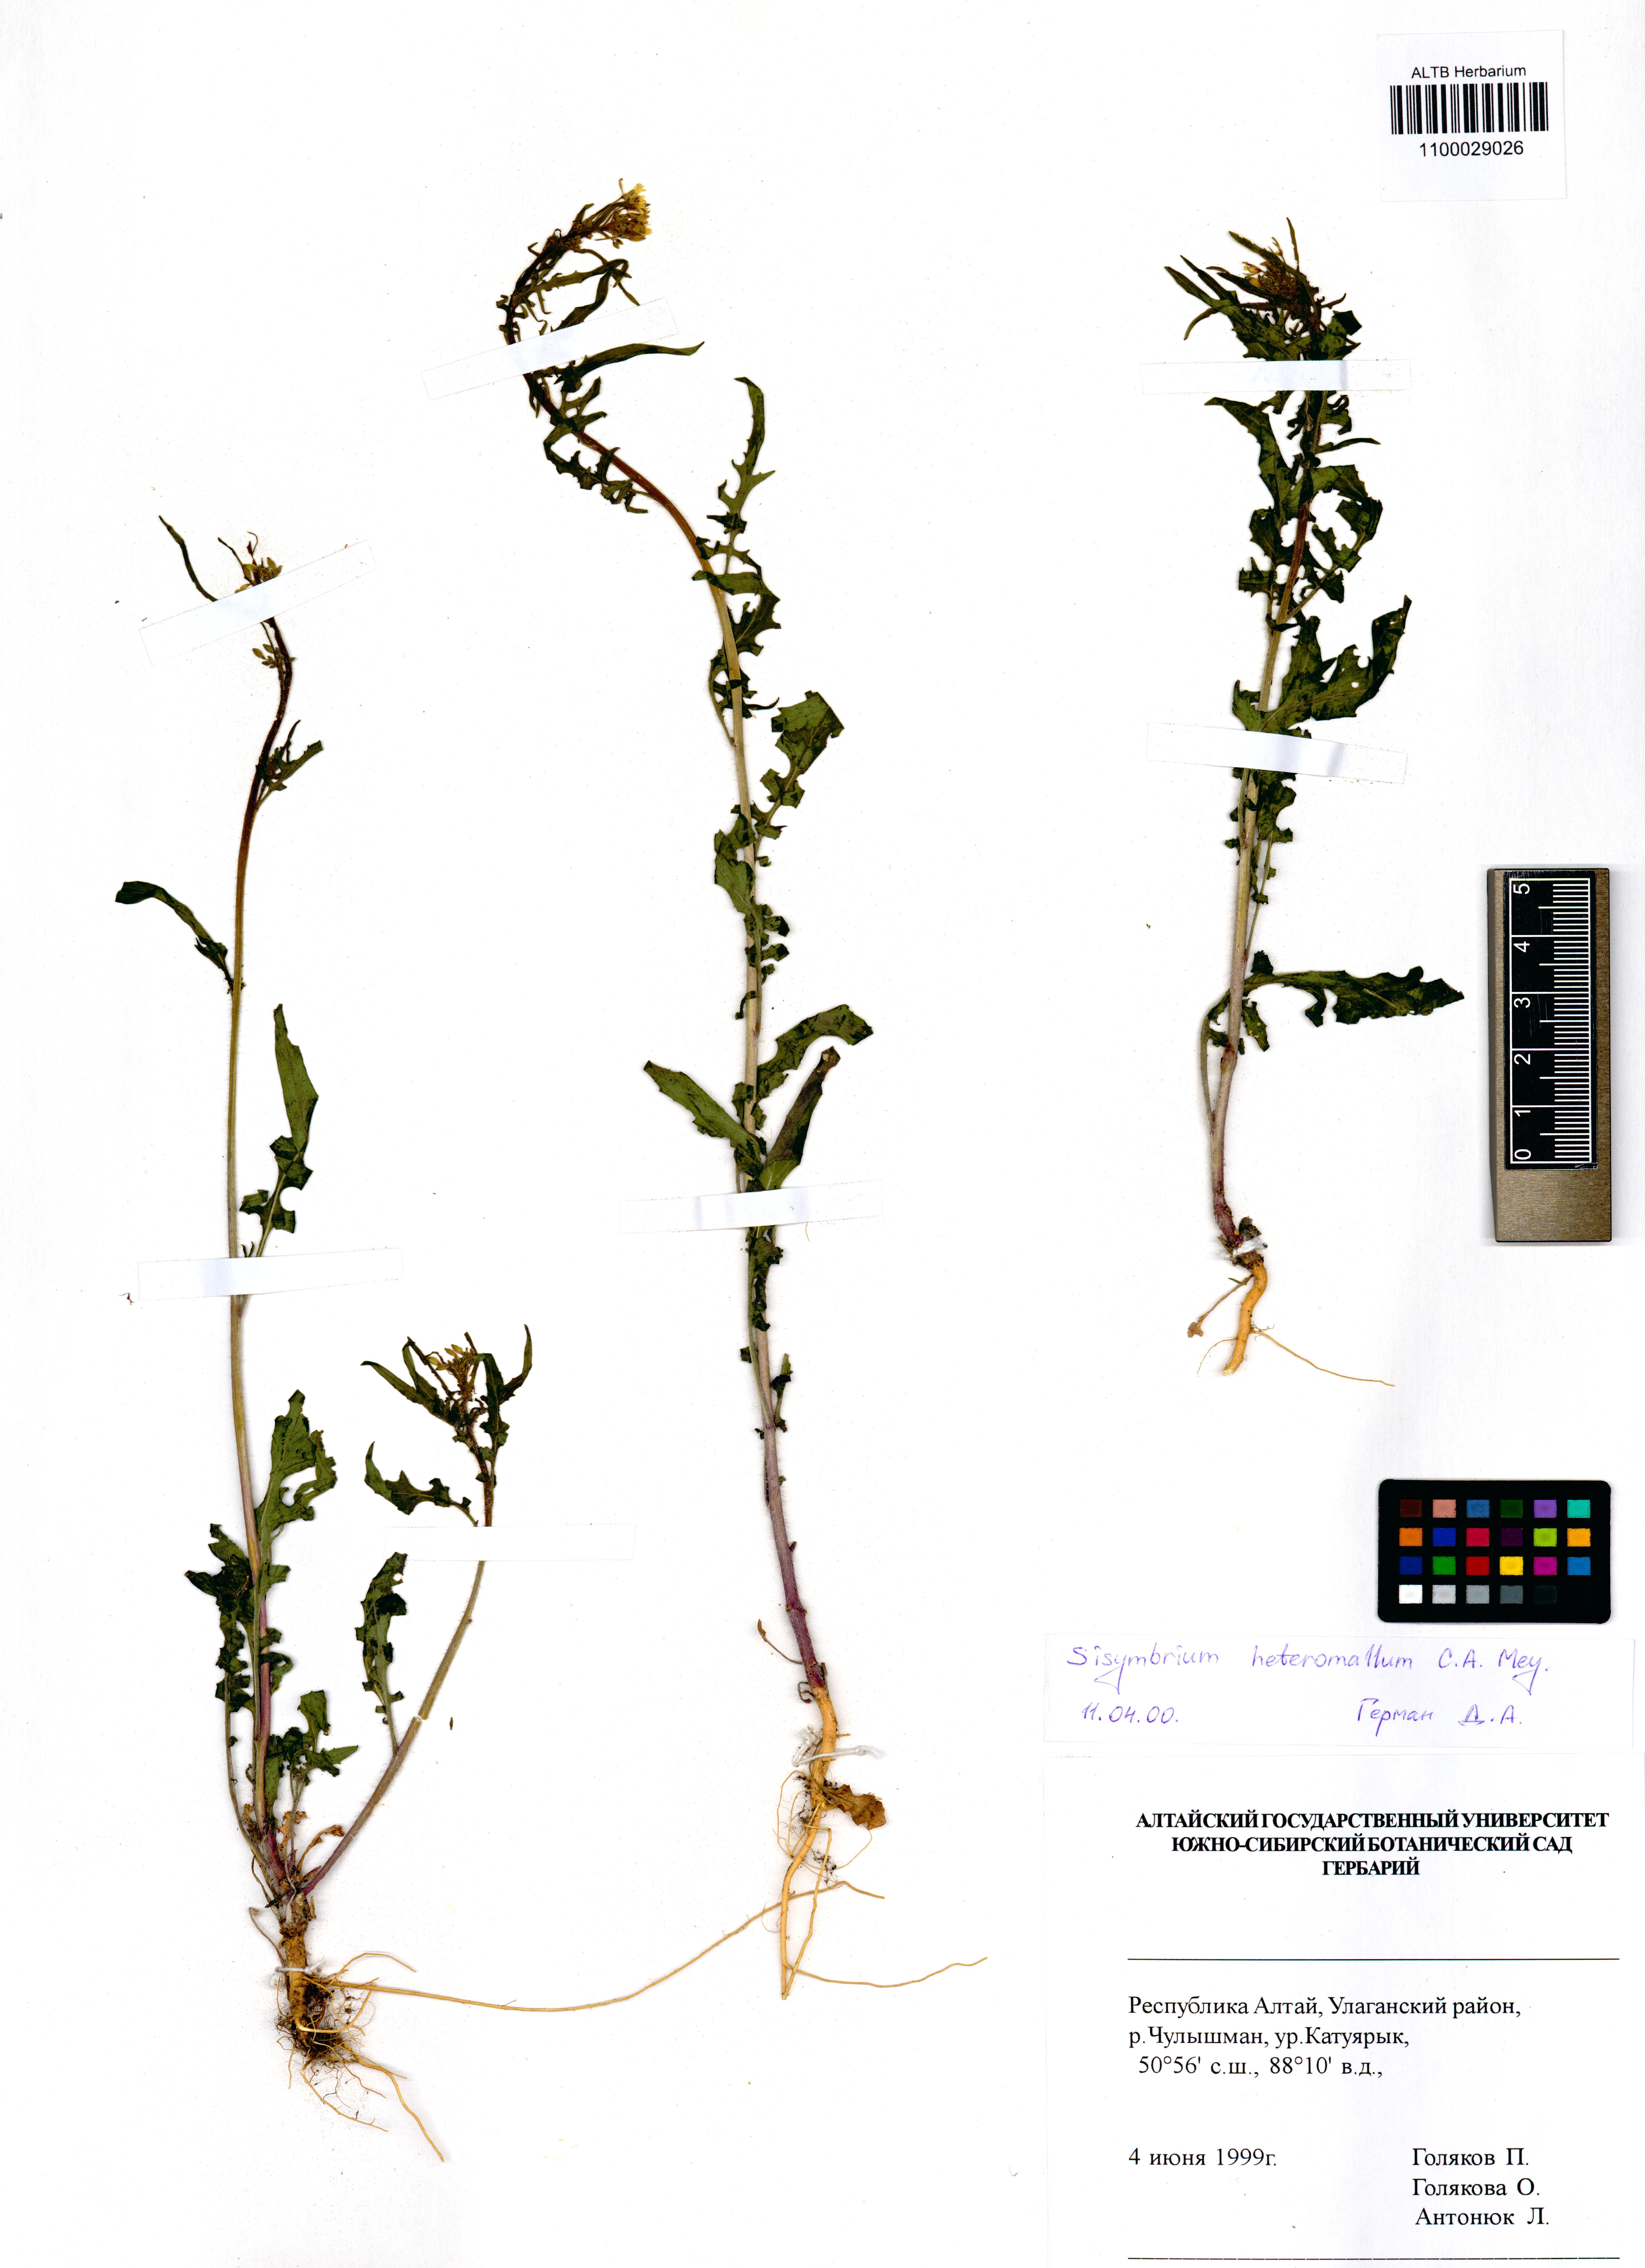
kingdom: Plantae
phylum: Tracheophyta
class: Magnoliopsida
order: Brassicales
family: Brassicaceae
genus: Sisymbrium
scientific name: Sisymbrium heteromallum
